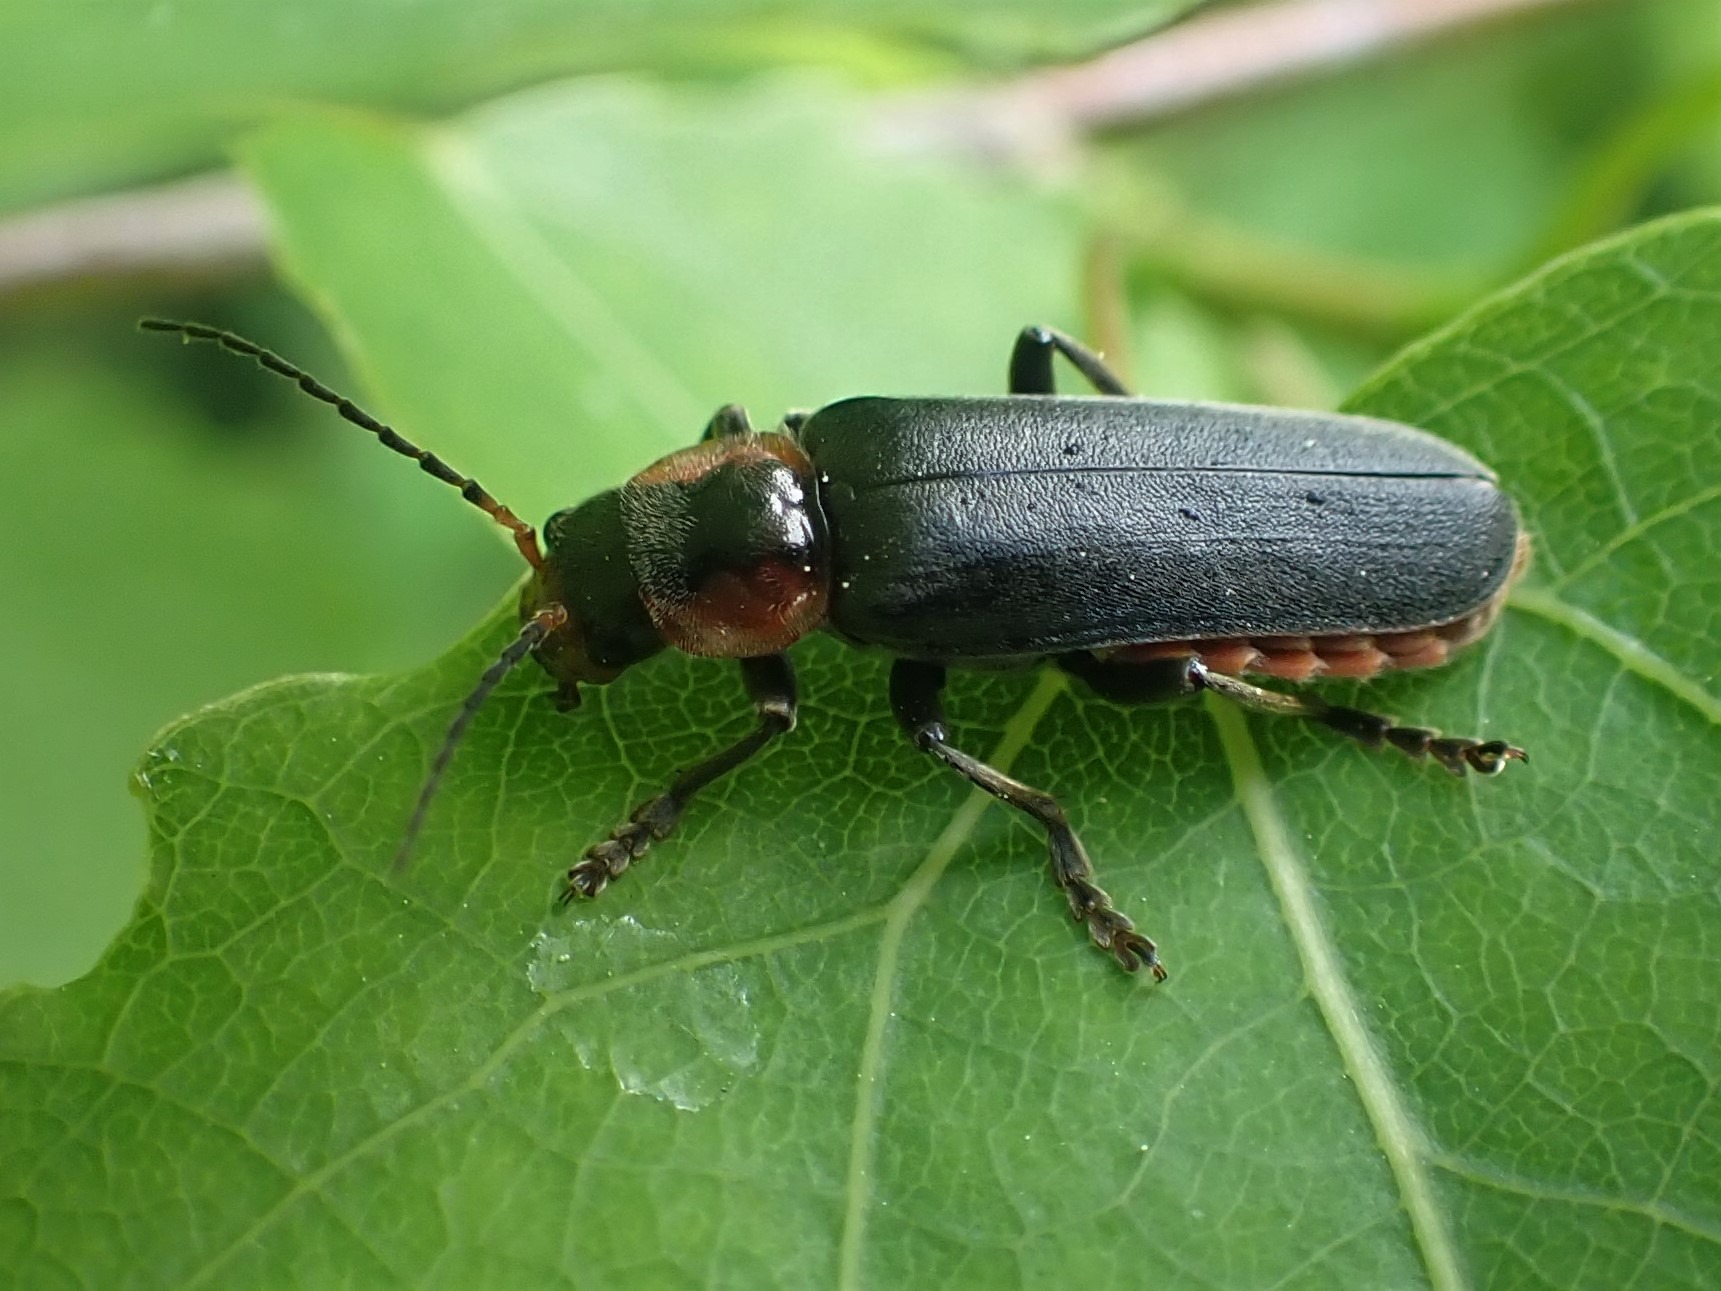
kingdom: Animalia
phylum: Arthropoda
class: Insecta
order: Coleoptera
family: Cantharidae
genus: Cantharis
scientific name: Cantharis fusca
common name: Stor blødvinge
